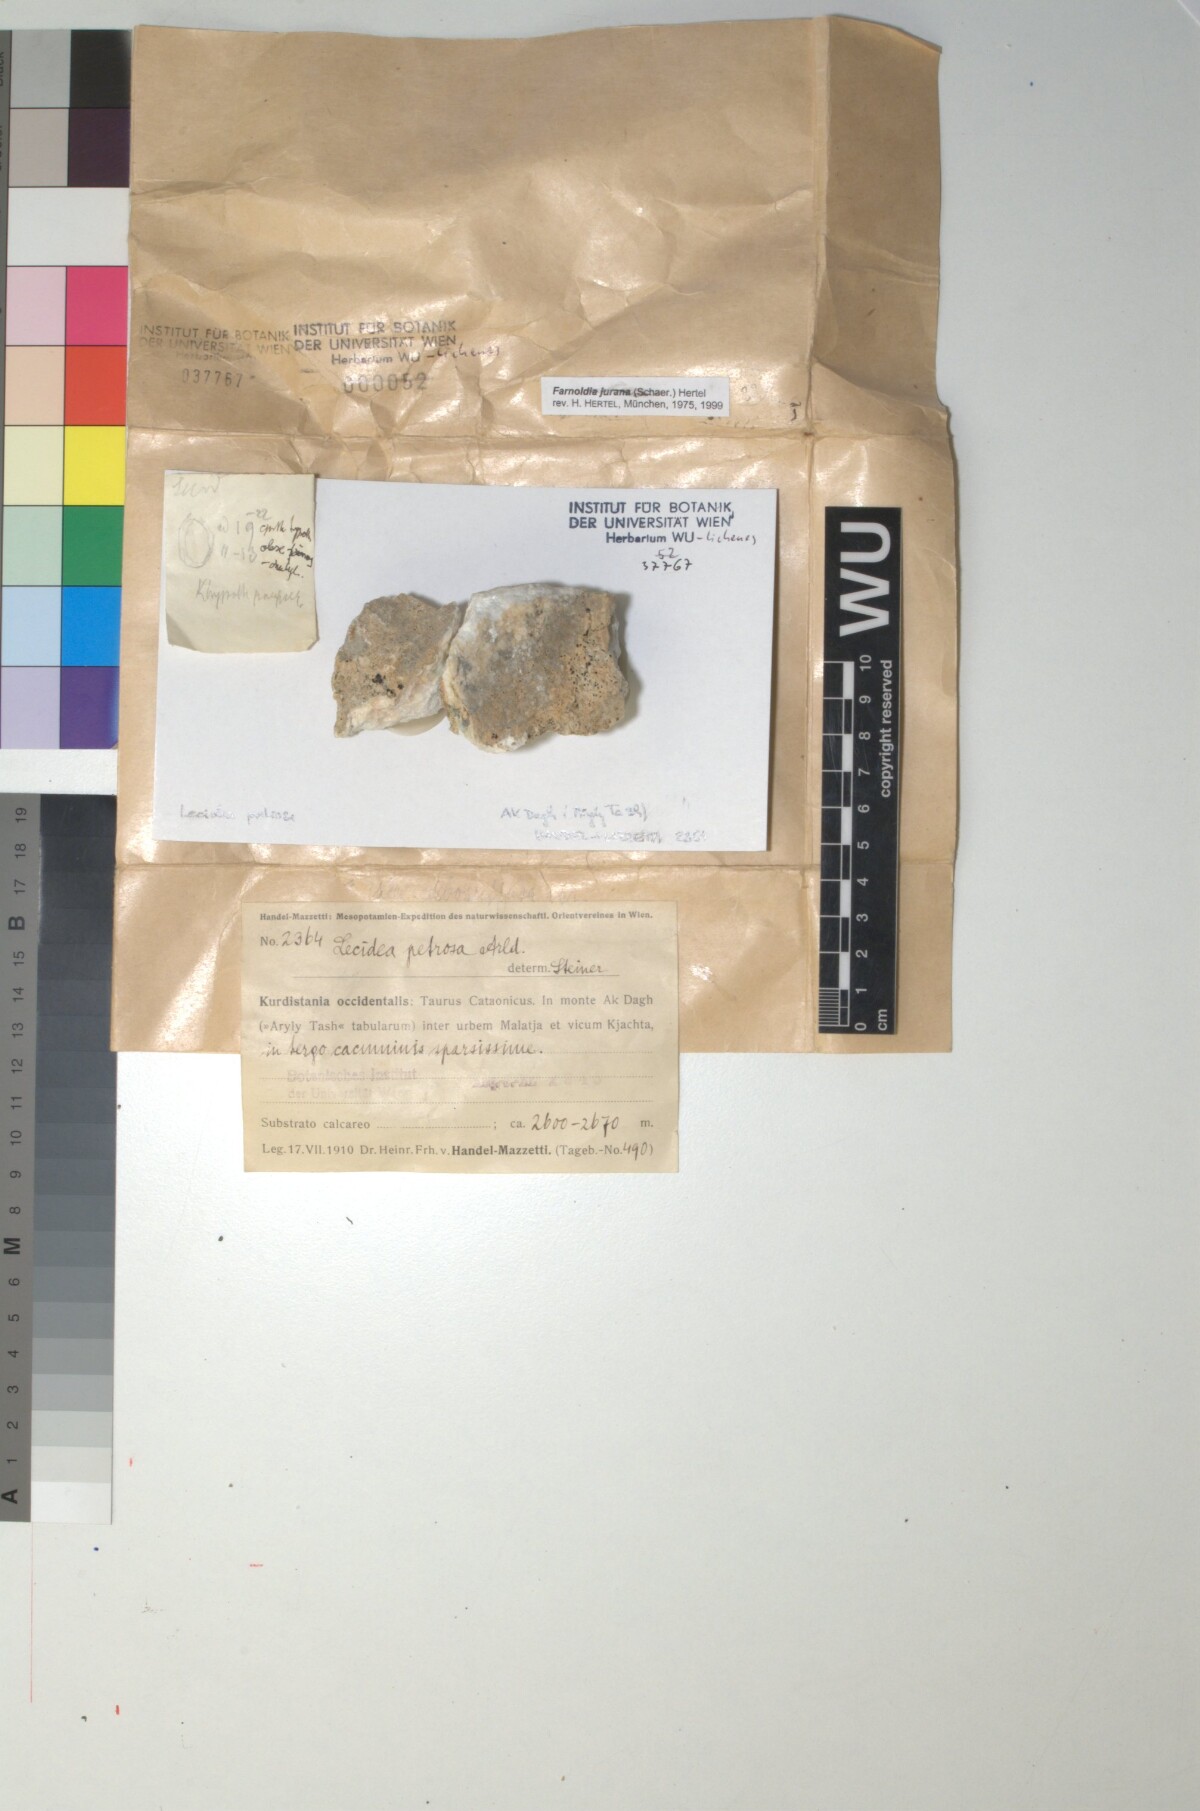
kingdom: Fungi
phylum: Ascomycota
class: Lecanoromycetes
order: Lecideales
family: Lecideaceae
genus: Farnoldia
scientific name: Farnoldia jurana
